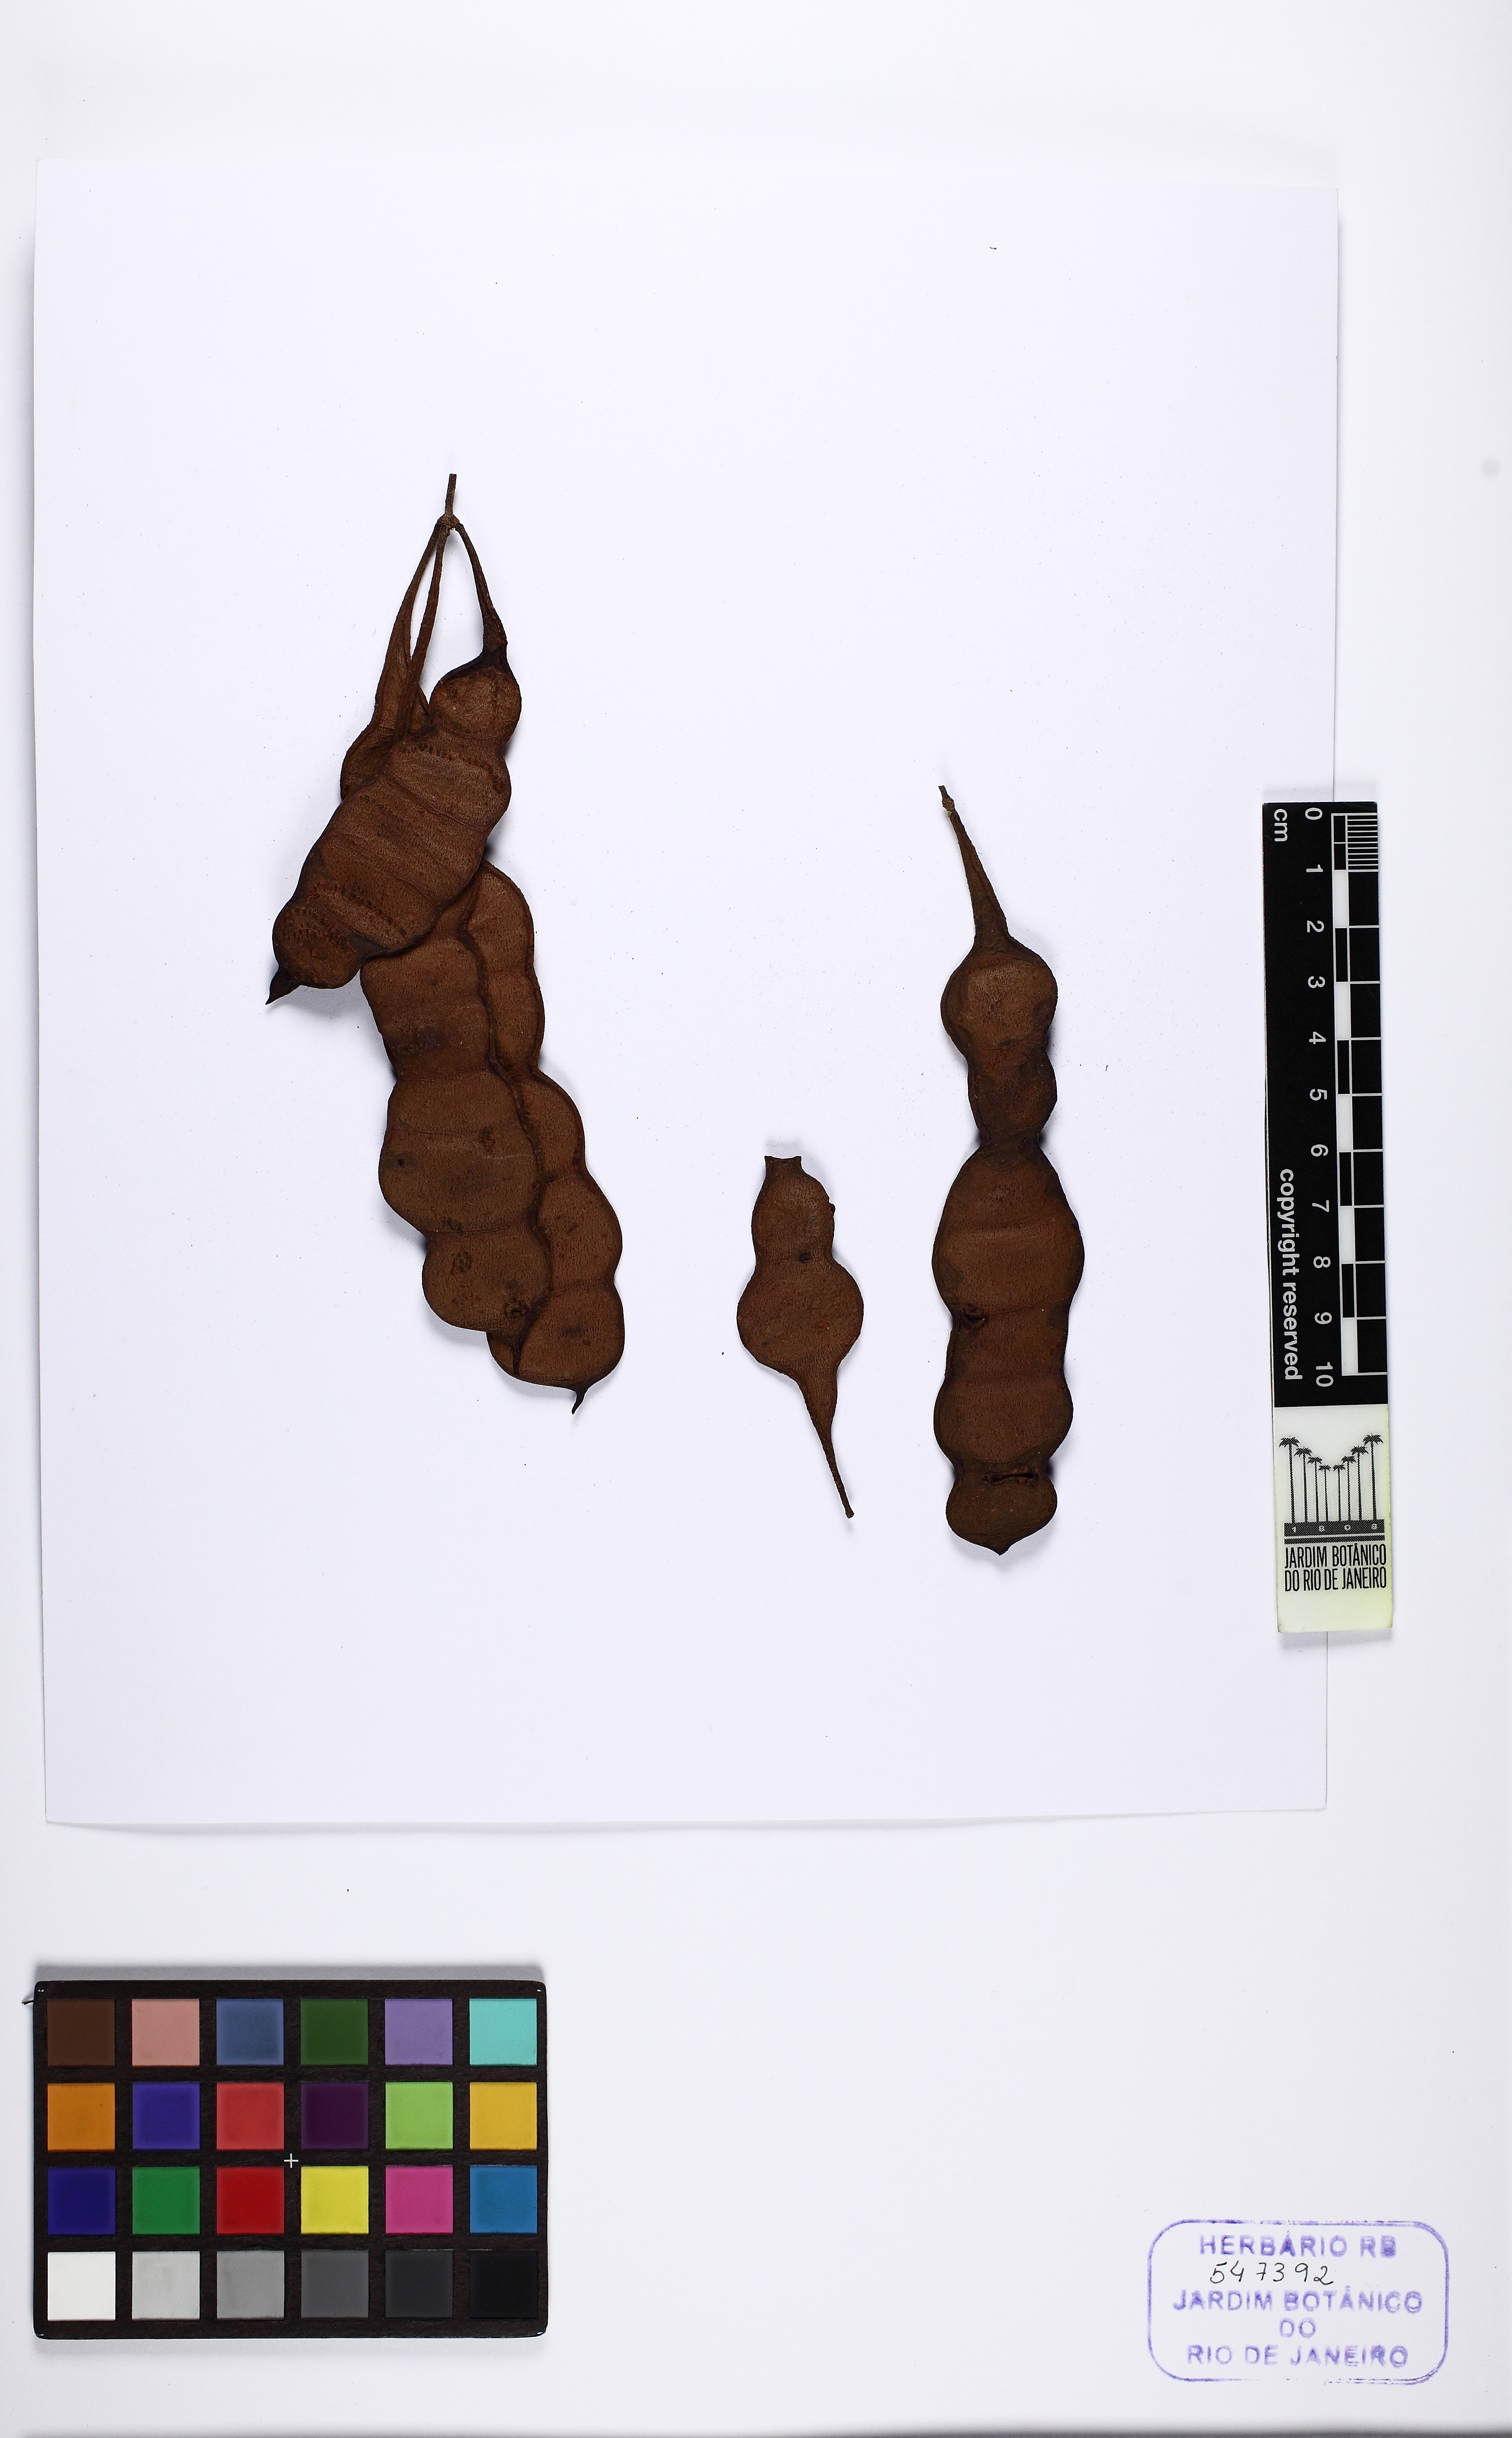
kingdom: Plantae
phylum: Tracheophyta
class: Magnoliopsida
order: Fabales
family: Fabaceae
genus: Anadenanthera
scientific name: Anadenanthera peregrina
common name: Cohoba
